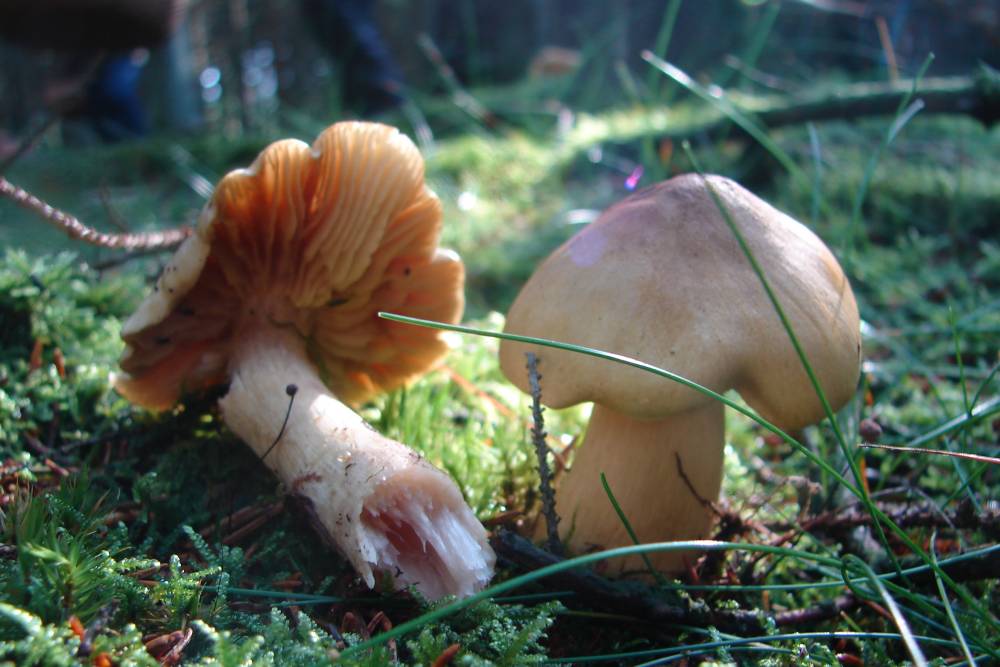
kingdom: Fungi
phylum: Basidiomycota
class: Agaricomycetes
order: Agaricales
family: Tricholomataceae
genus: Tricholoma
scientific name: Tricholoma aestuans
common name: kegle-ridderhat
